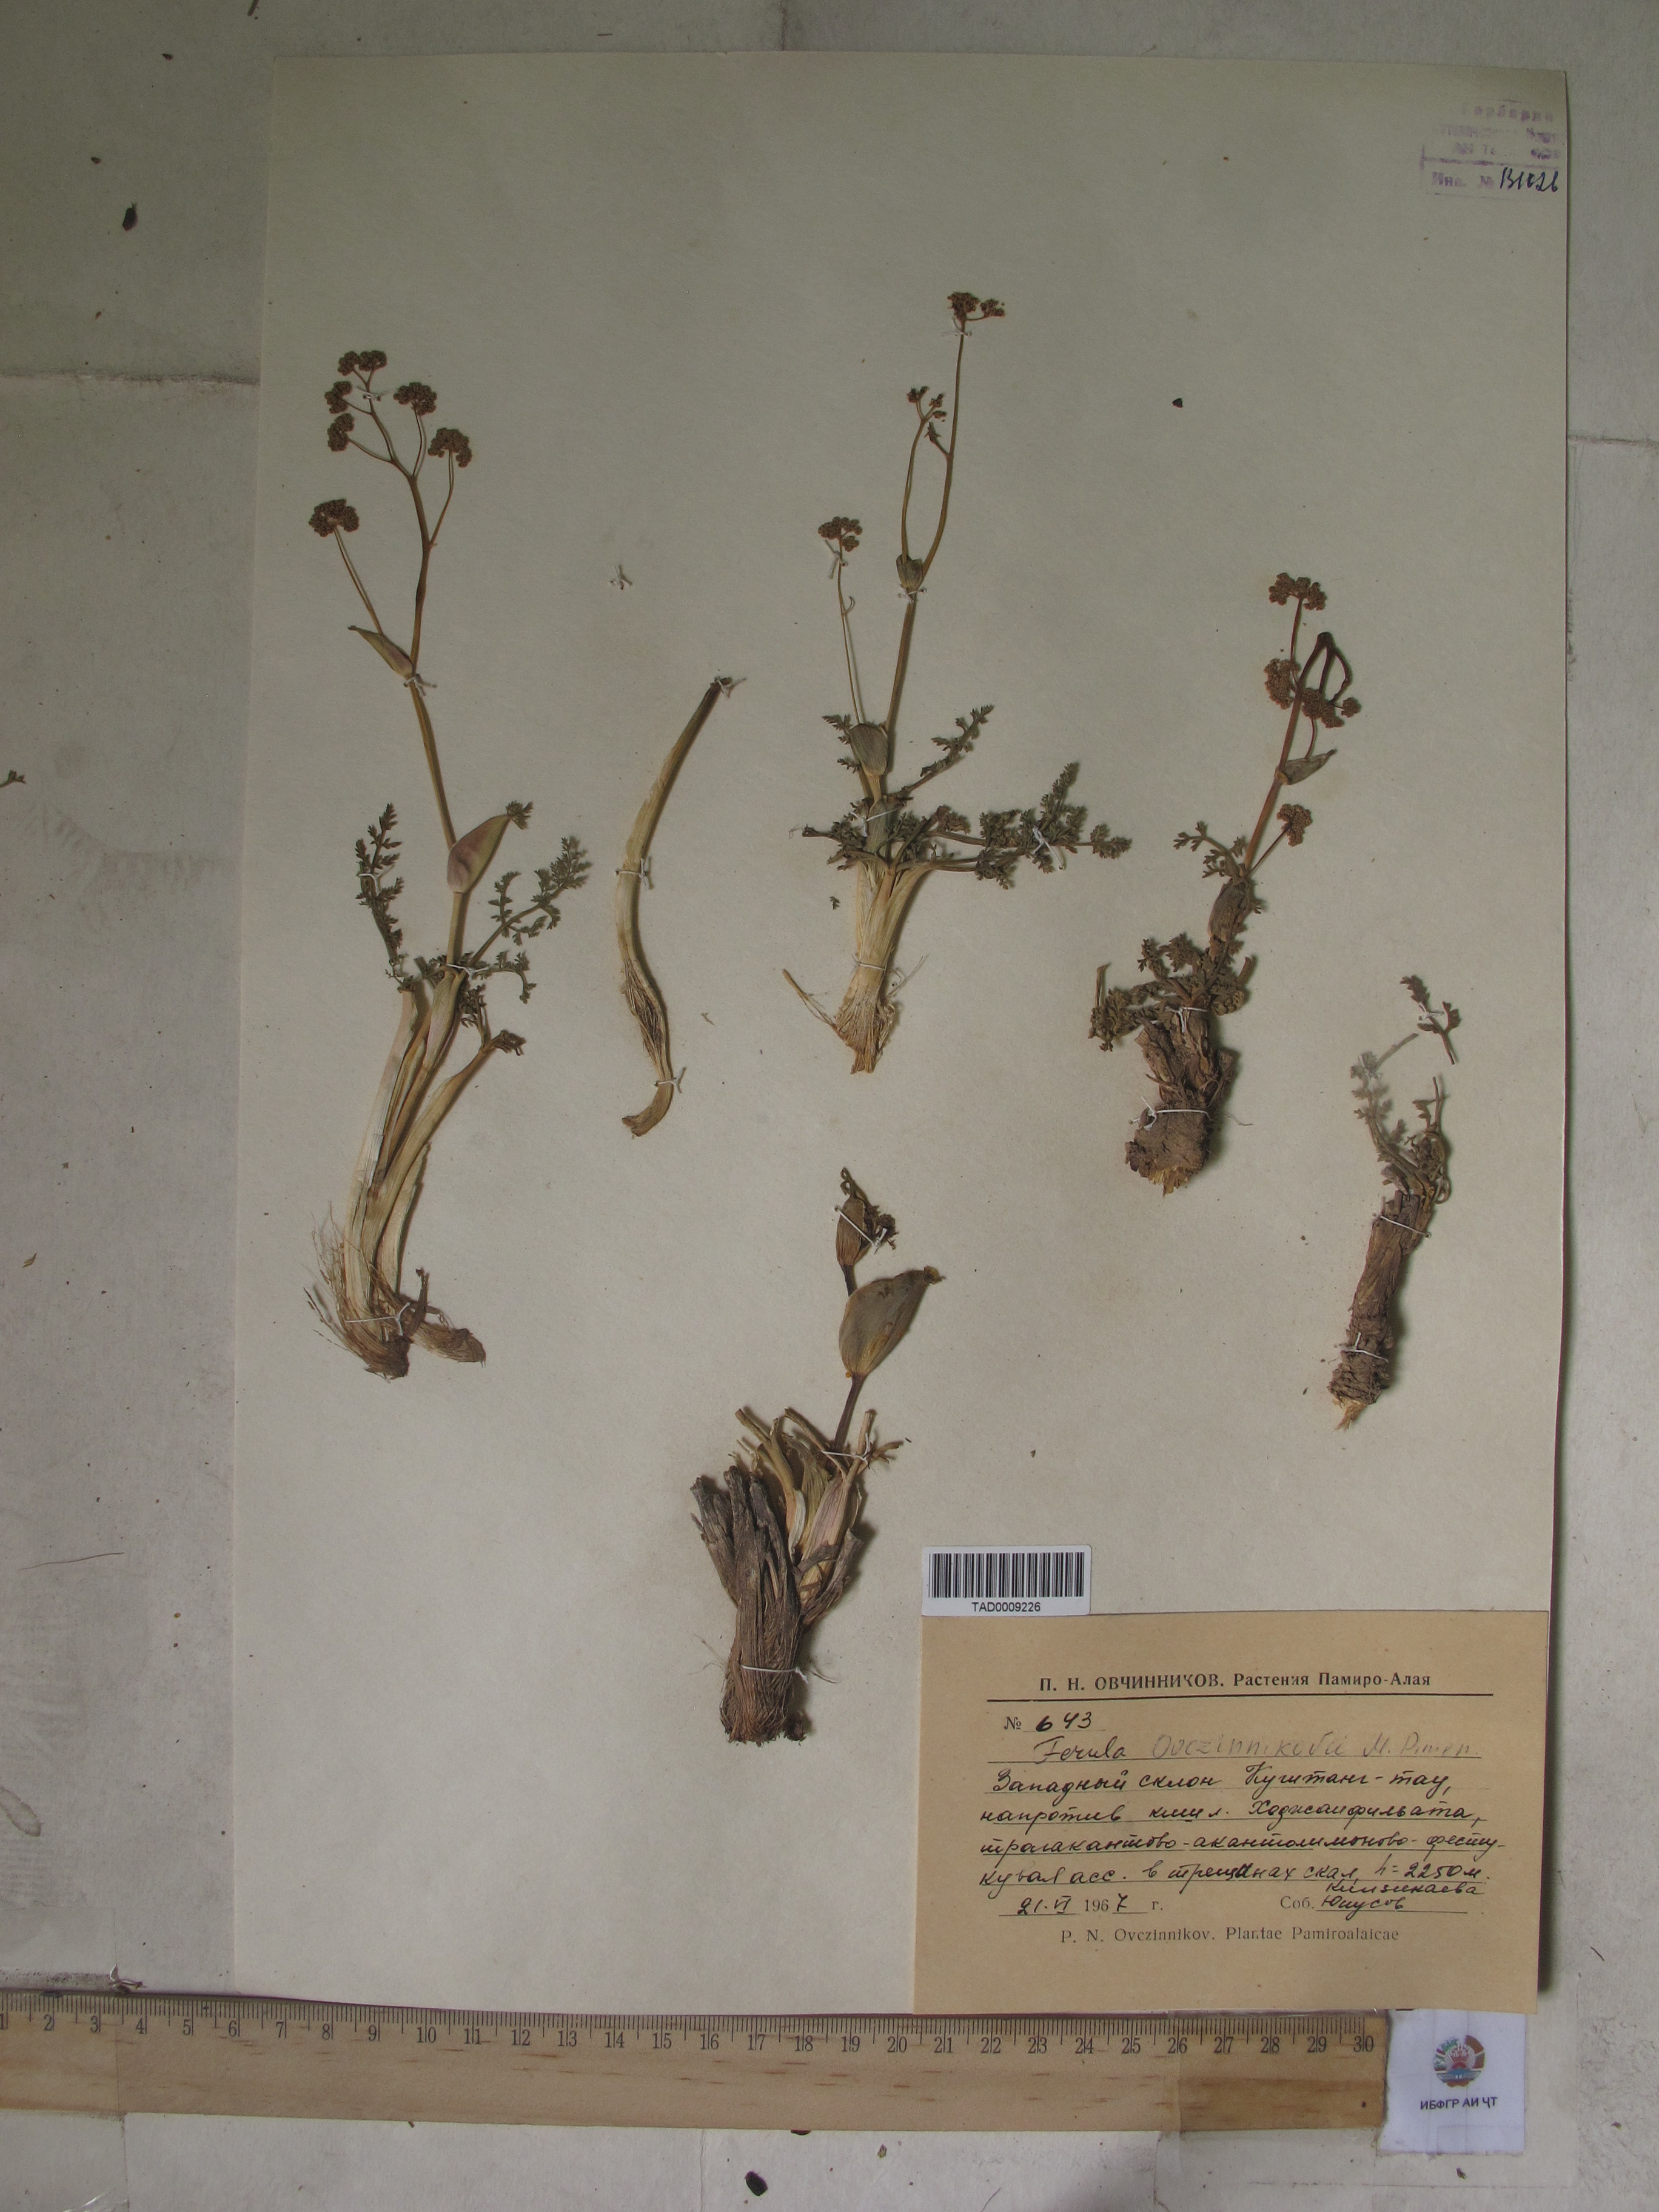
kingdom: Plantae
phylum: Tracheophyta
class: Magnoliopsida
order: Apiales
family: Apiaceae
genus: Ferula
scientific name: Ferula ovczinnikovii
